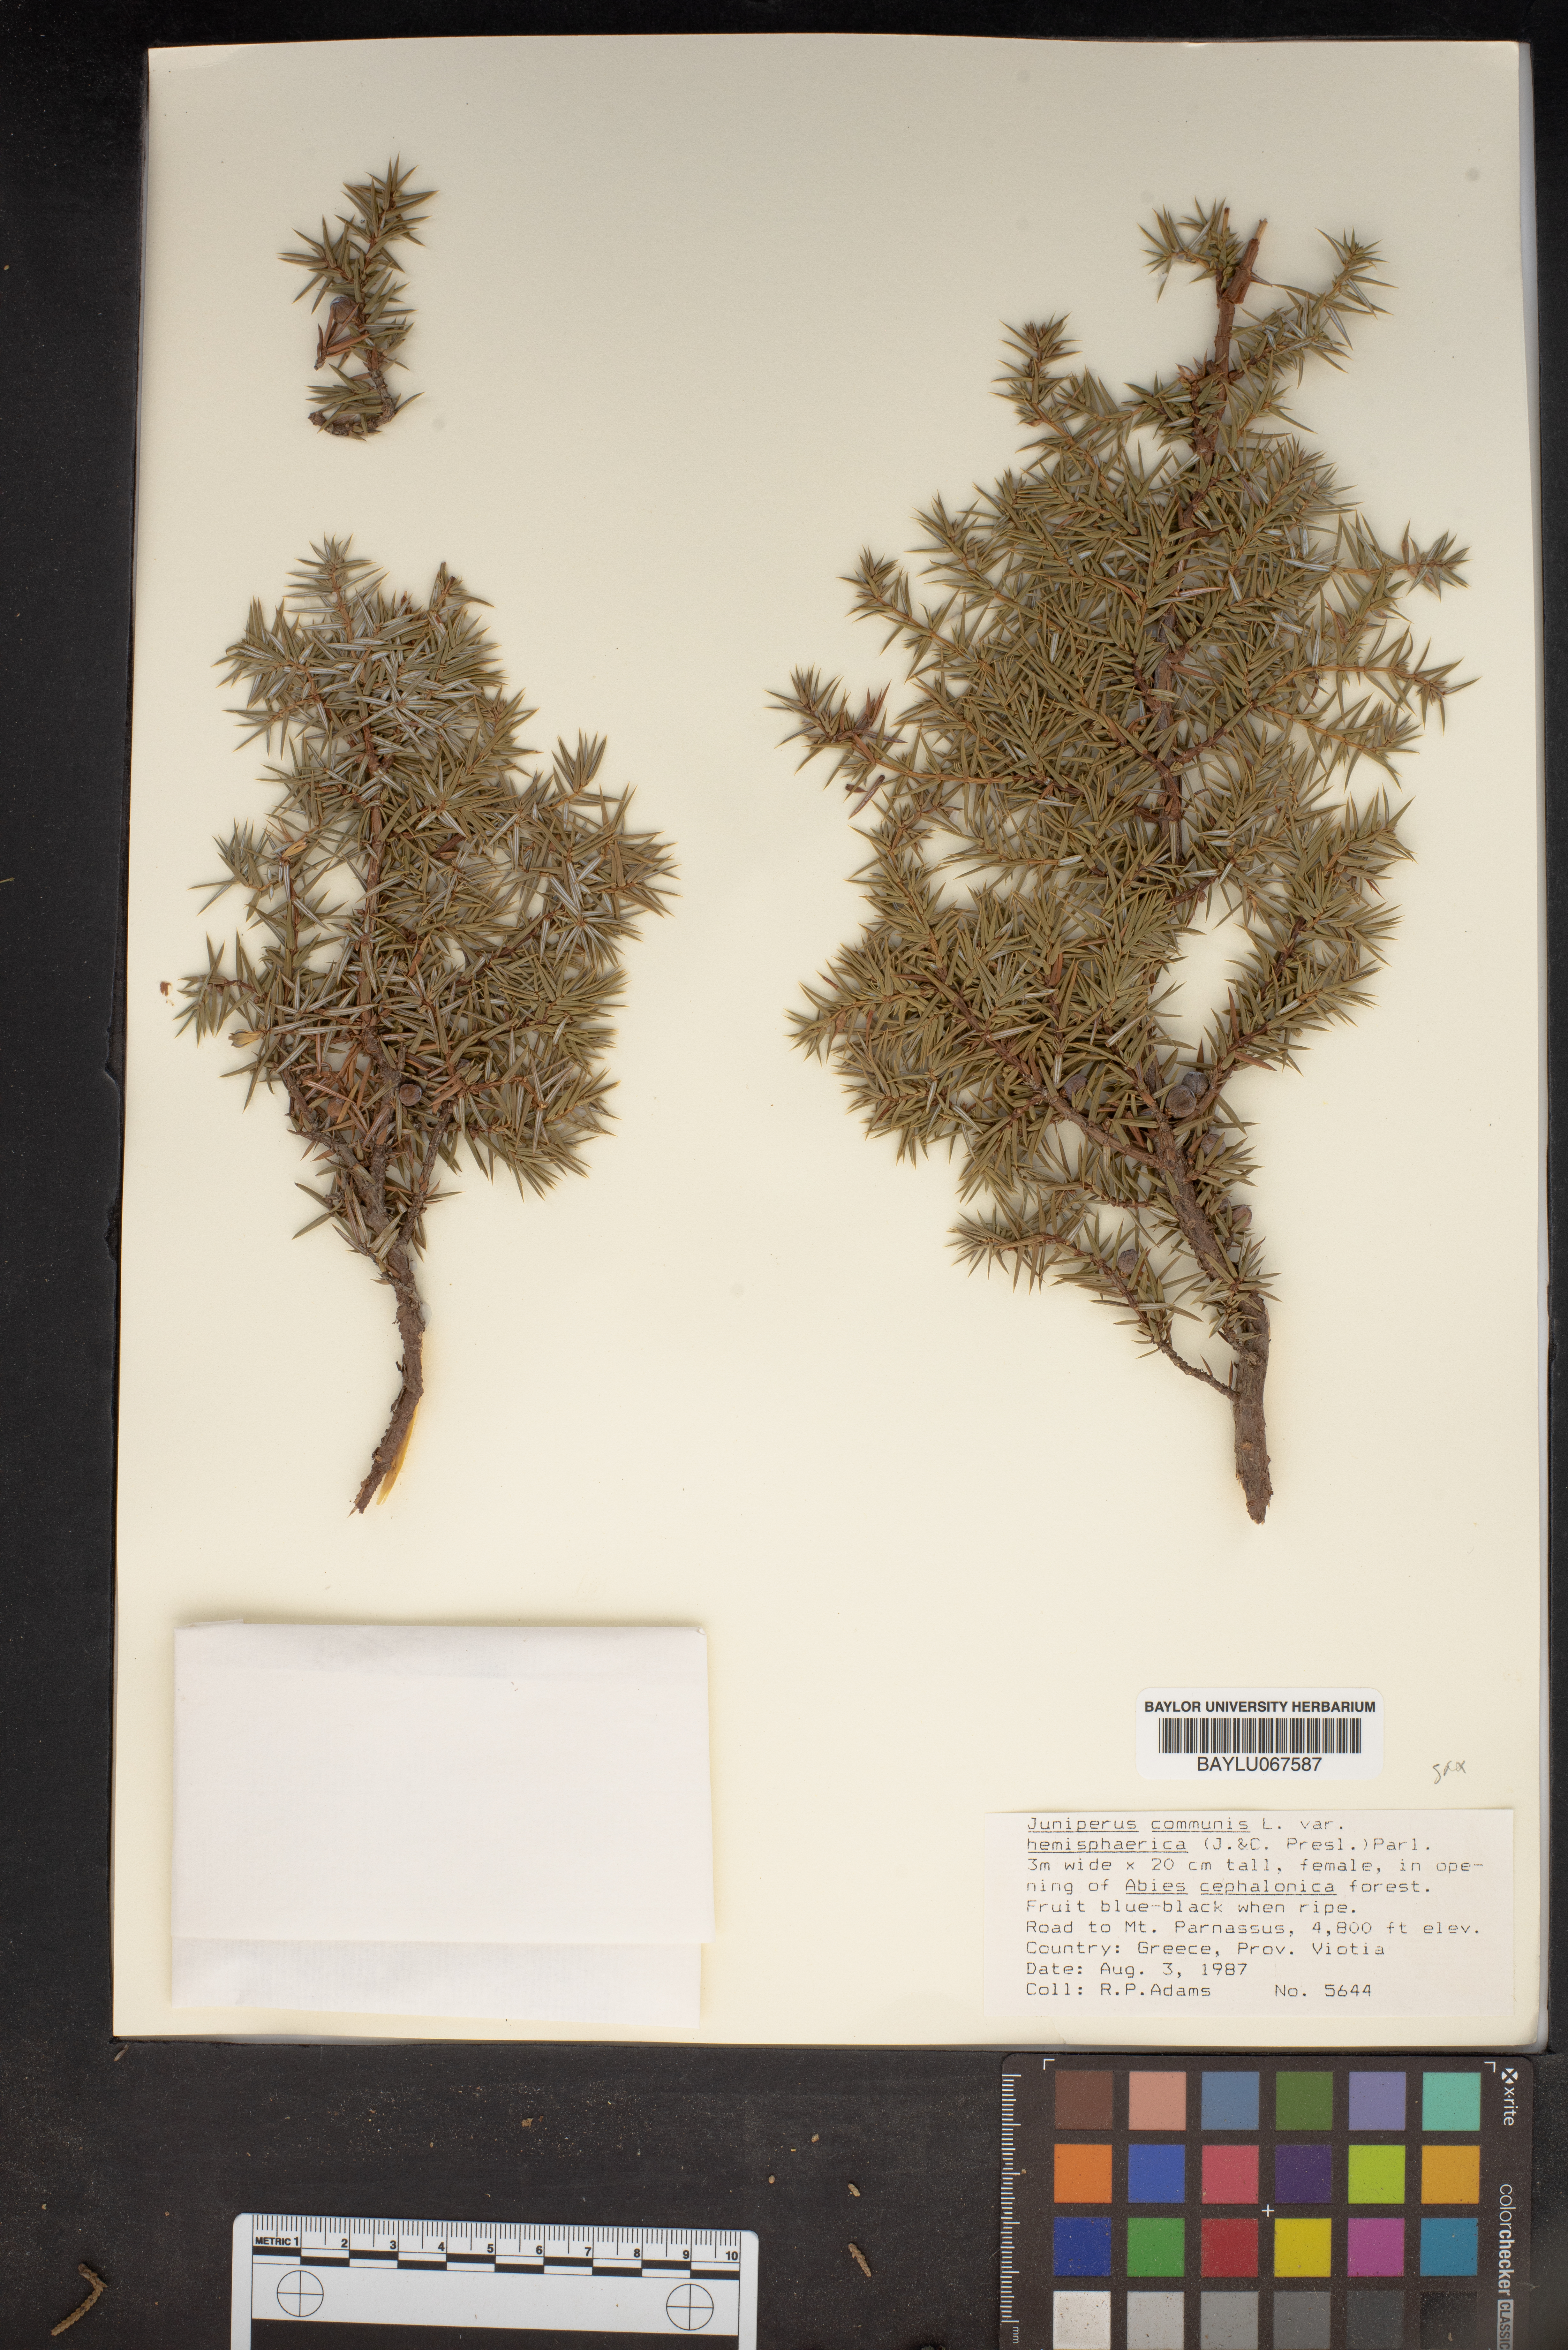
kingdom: Plantae
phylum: Tracheophyta
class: Pinopsida
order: Pinales
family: Cupressaceae
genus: Juniperus
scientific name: Juniperus communis
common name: Common juniper
